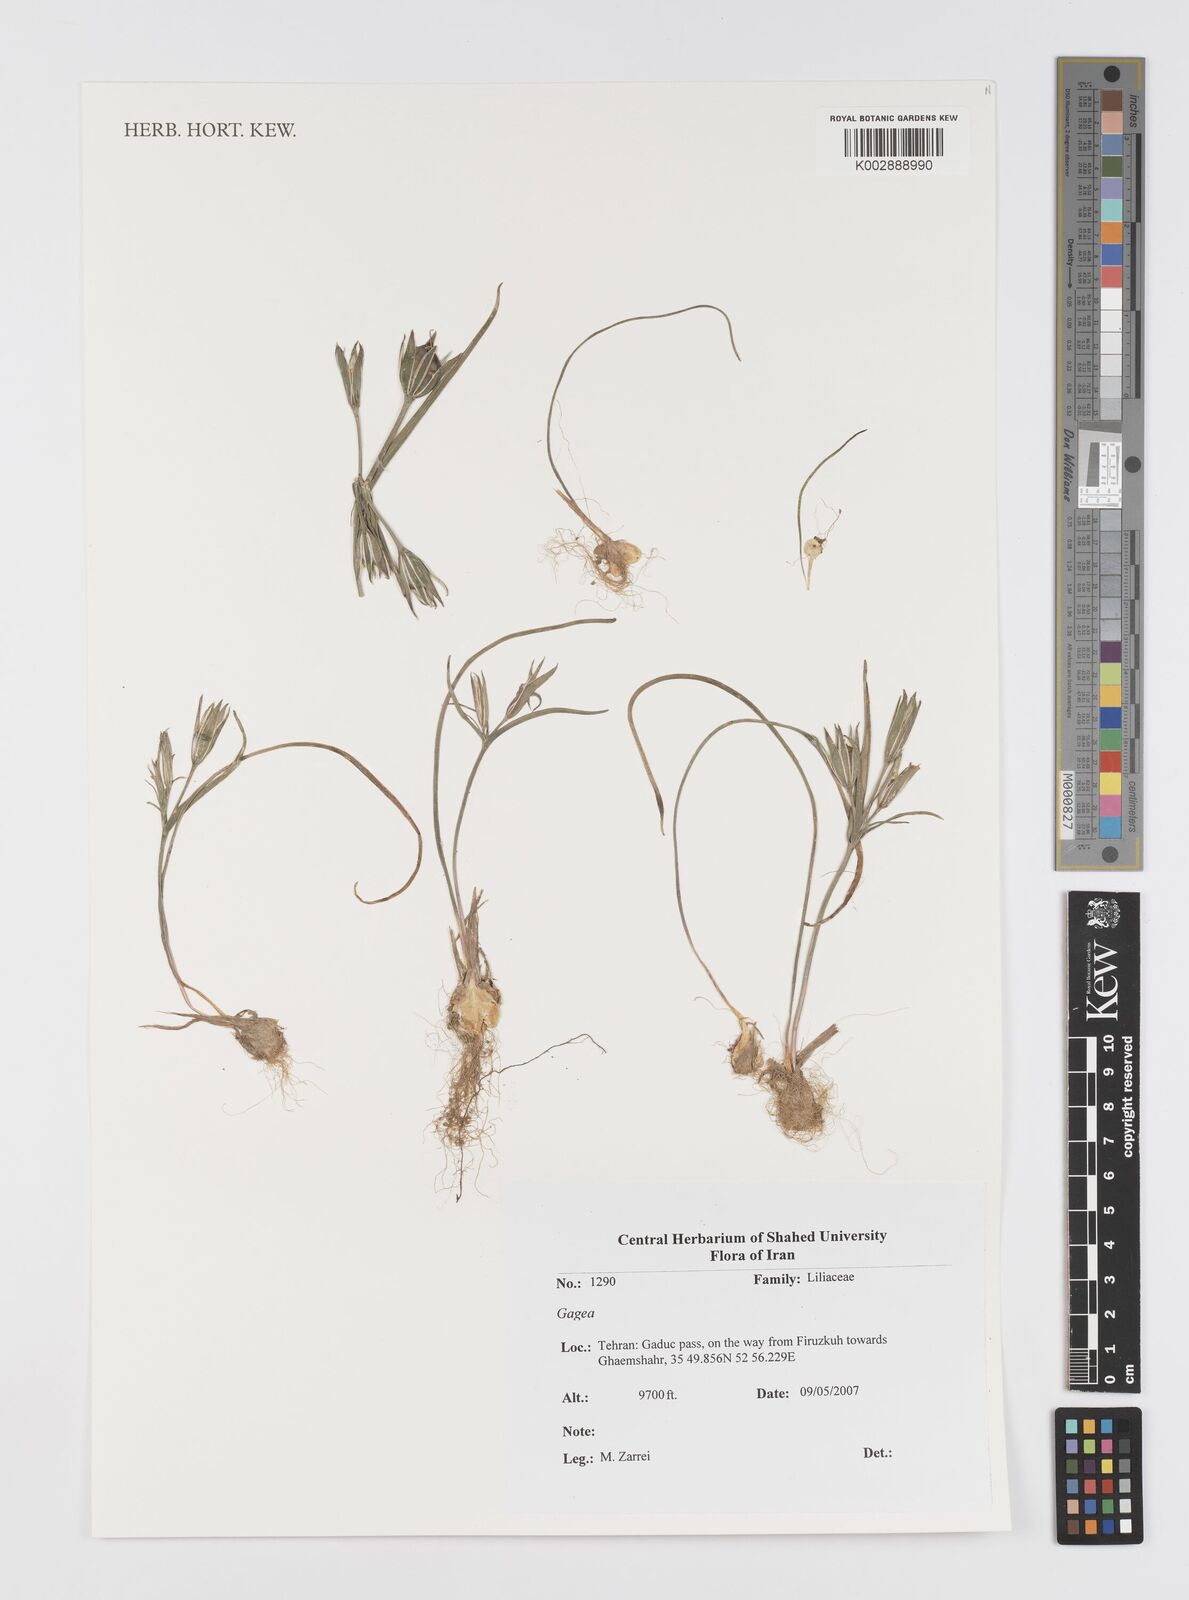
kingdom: Plantae
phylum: Tracheophyta
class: Liliopsida
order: Liliales
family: Liliaceae
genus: Gagea
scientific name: Gagea
